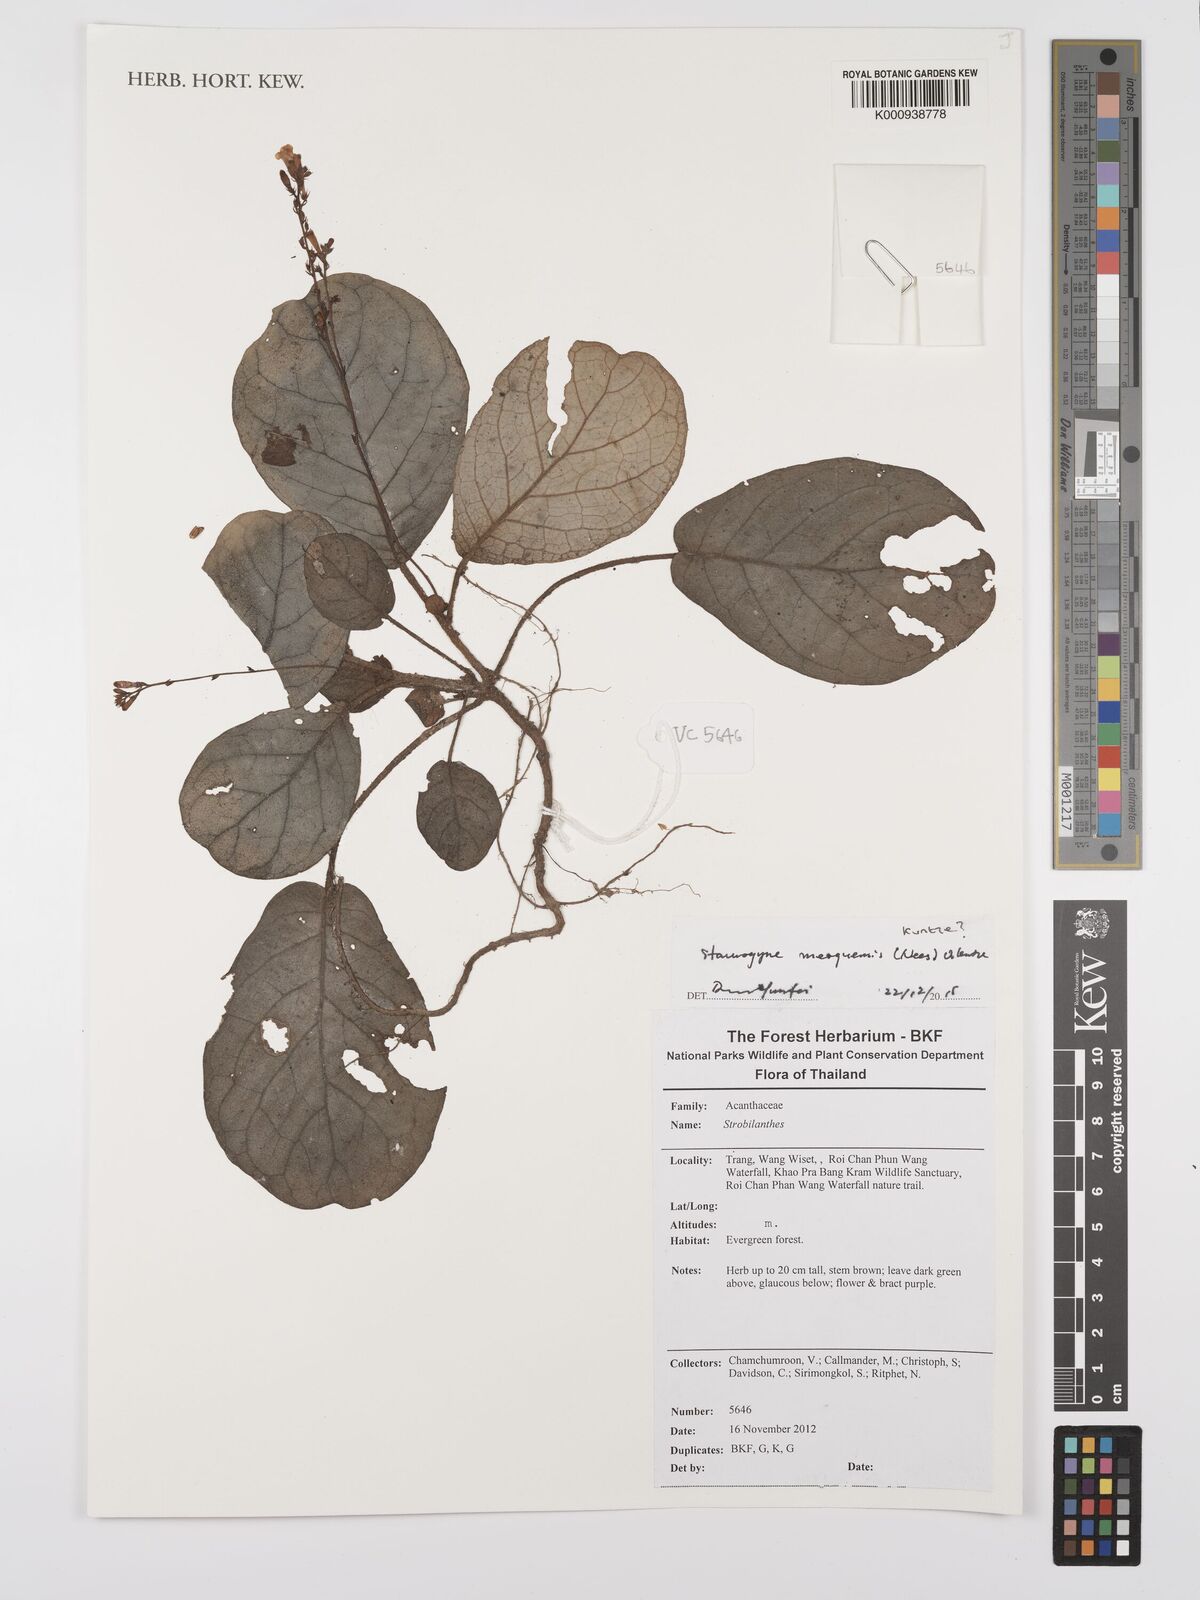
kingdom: Plantae
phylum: Tracheophyta
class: Magnoliopsida
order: Lamiales
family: Acanthaceae
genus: Staurogyne
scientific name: Staurogyne merguensis
